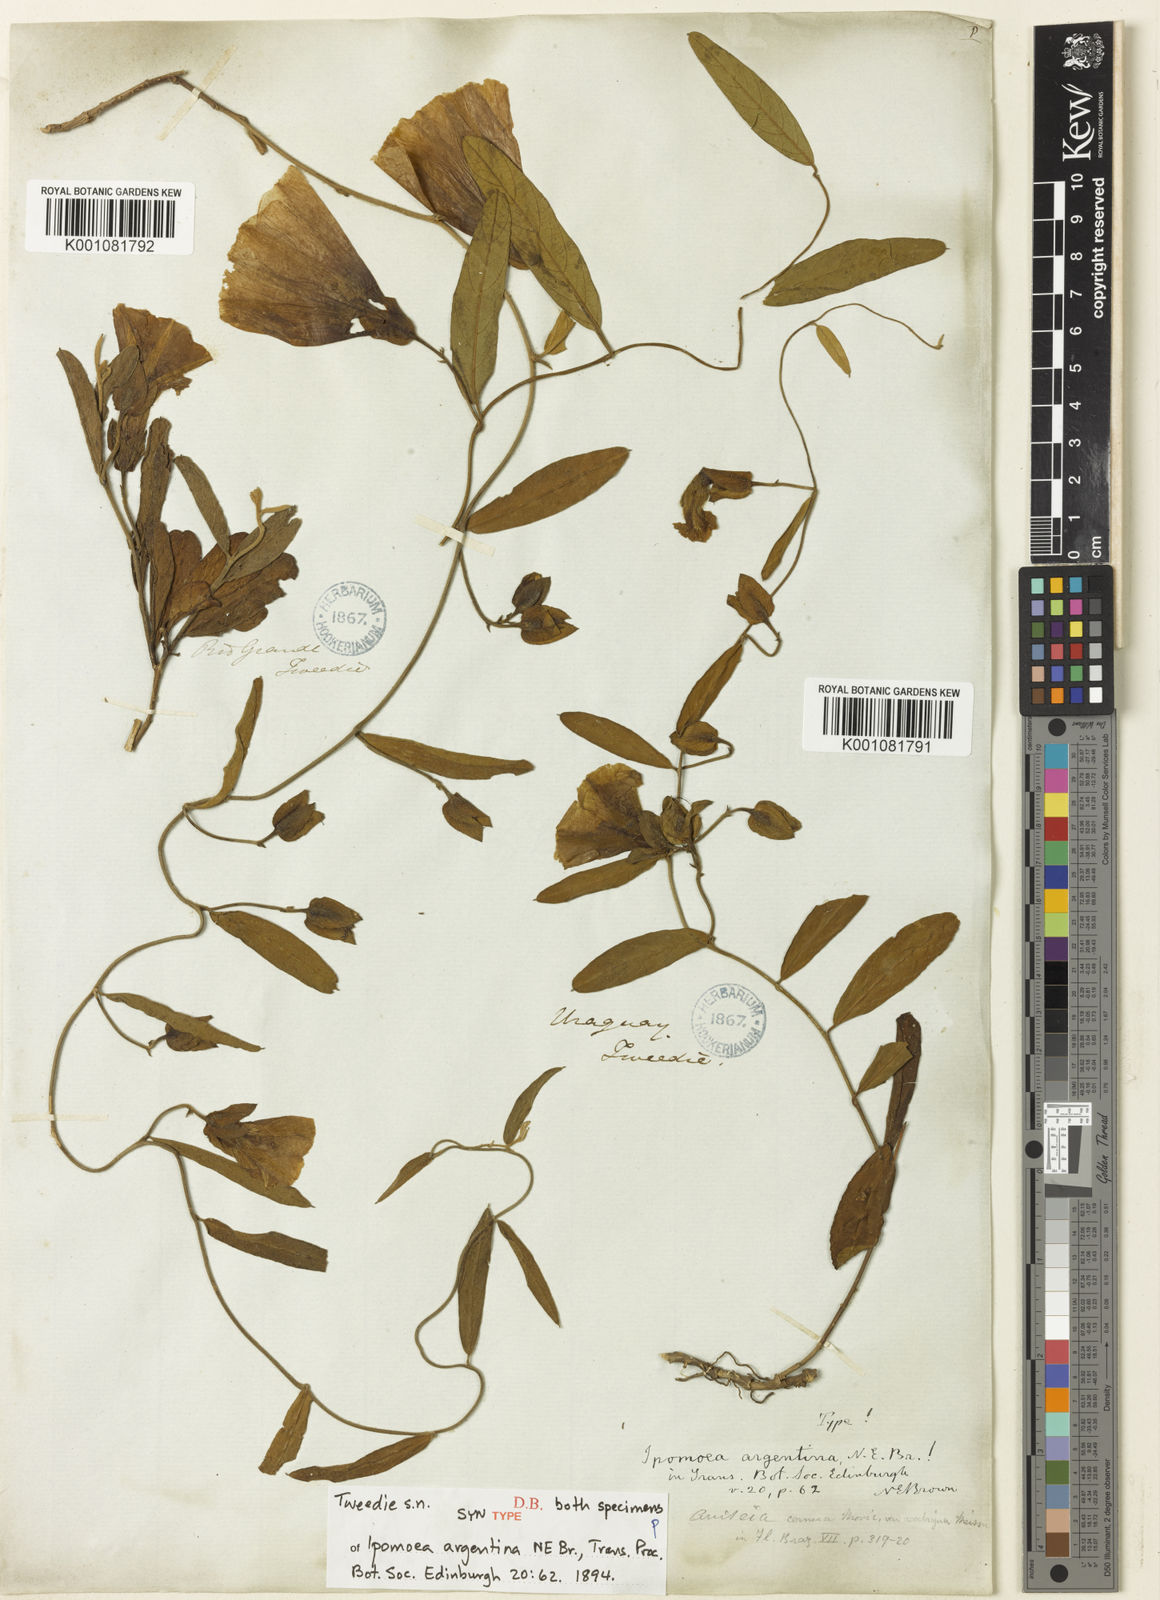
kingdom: Plantae
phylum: Tracheophyta
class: Magnoliopsida
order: Solanales
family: Convolvulaceae
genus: Aniseia
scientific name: Aniseia argentina
